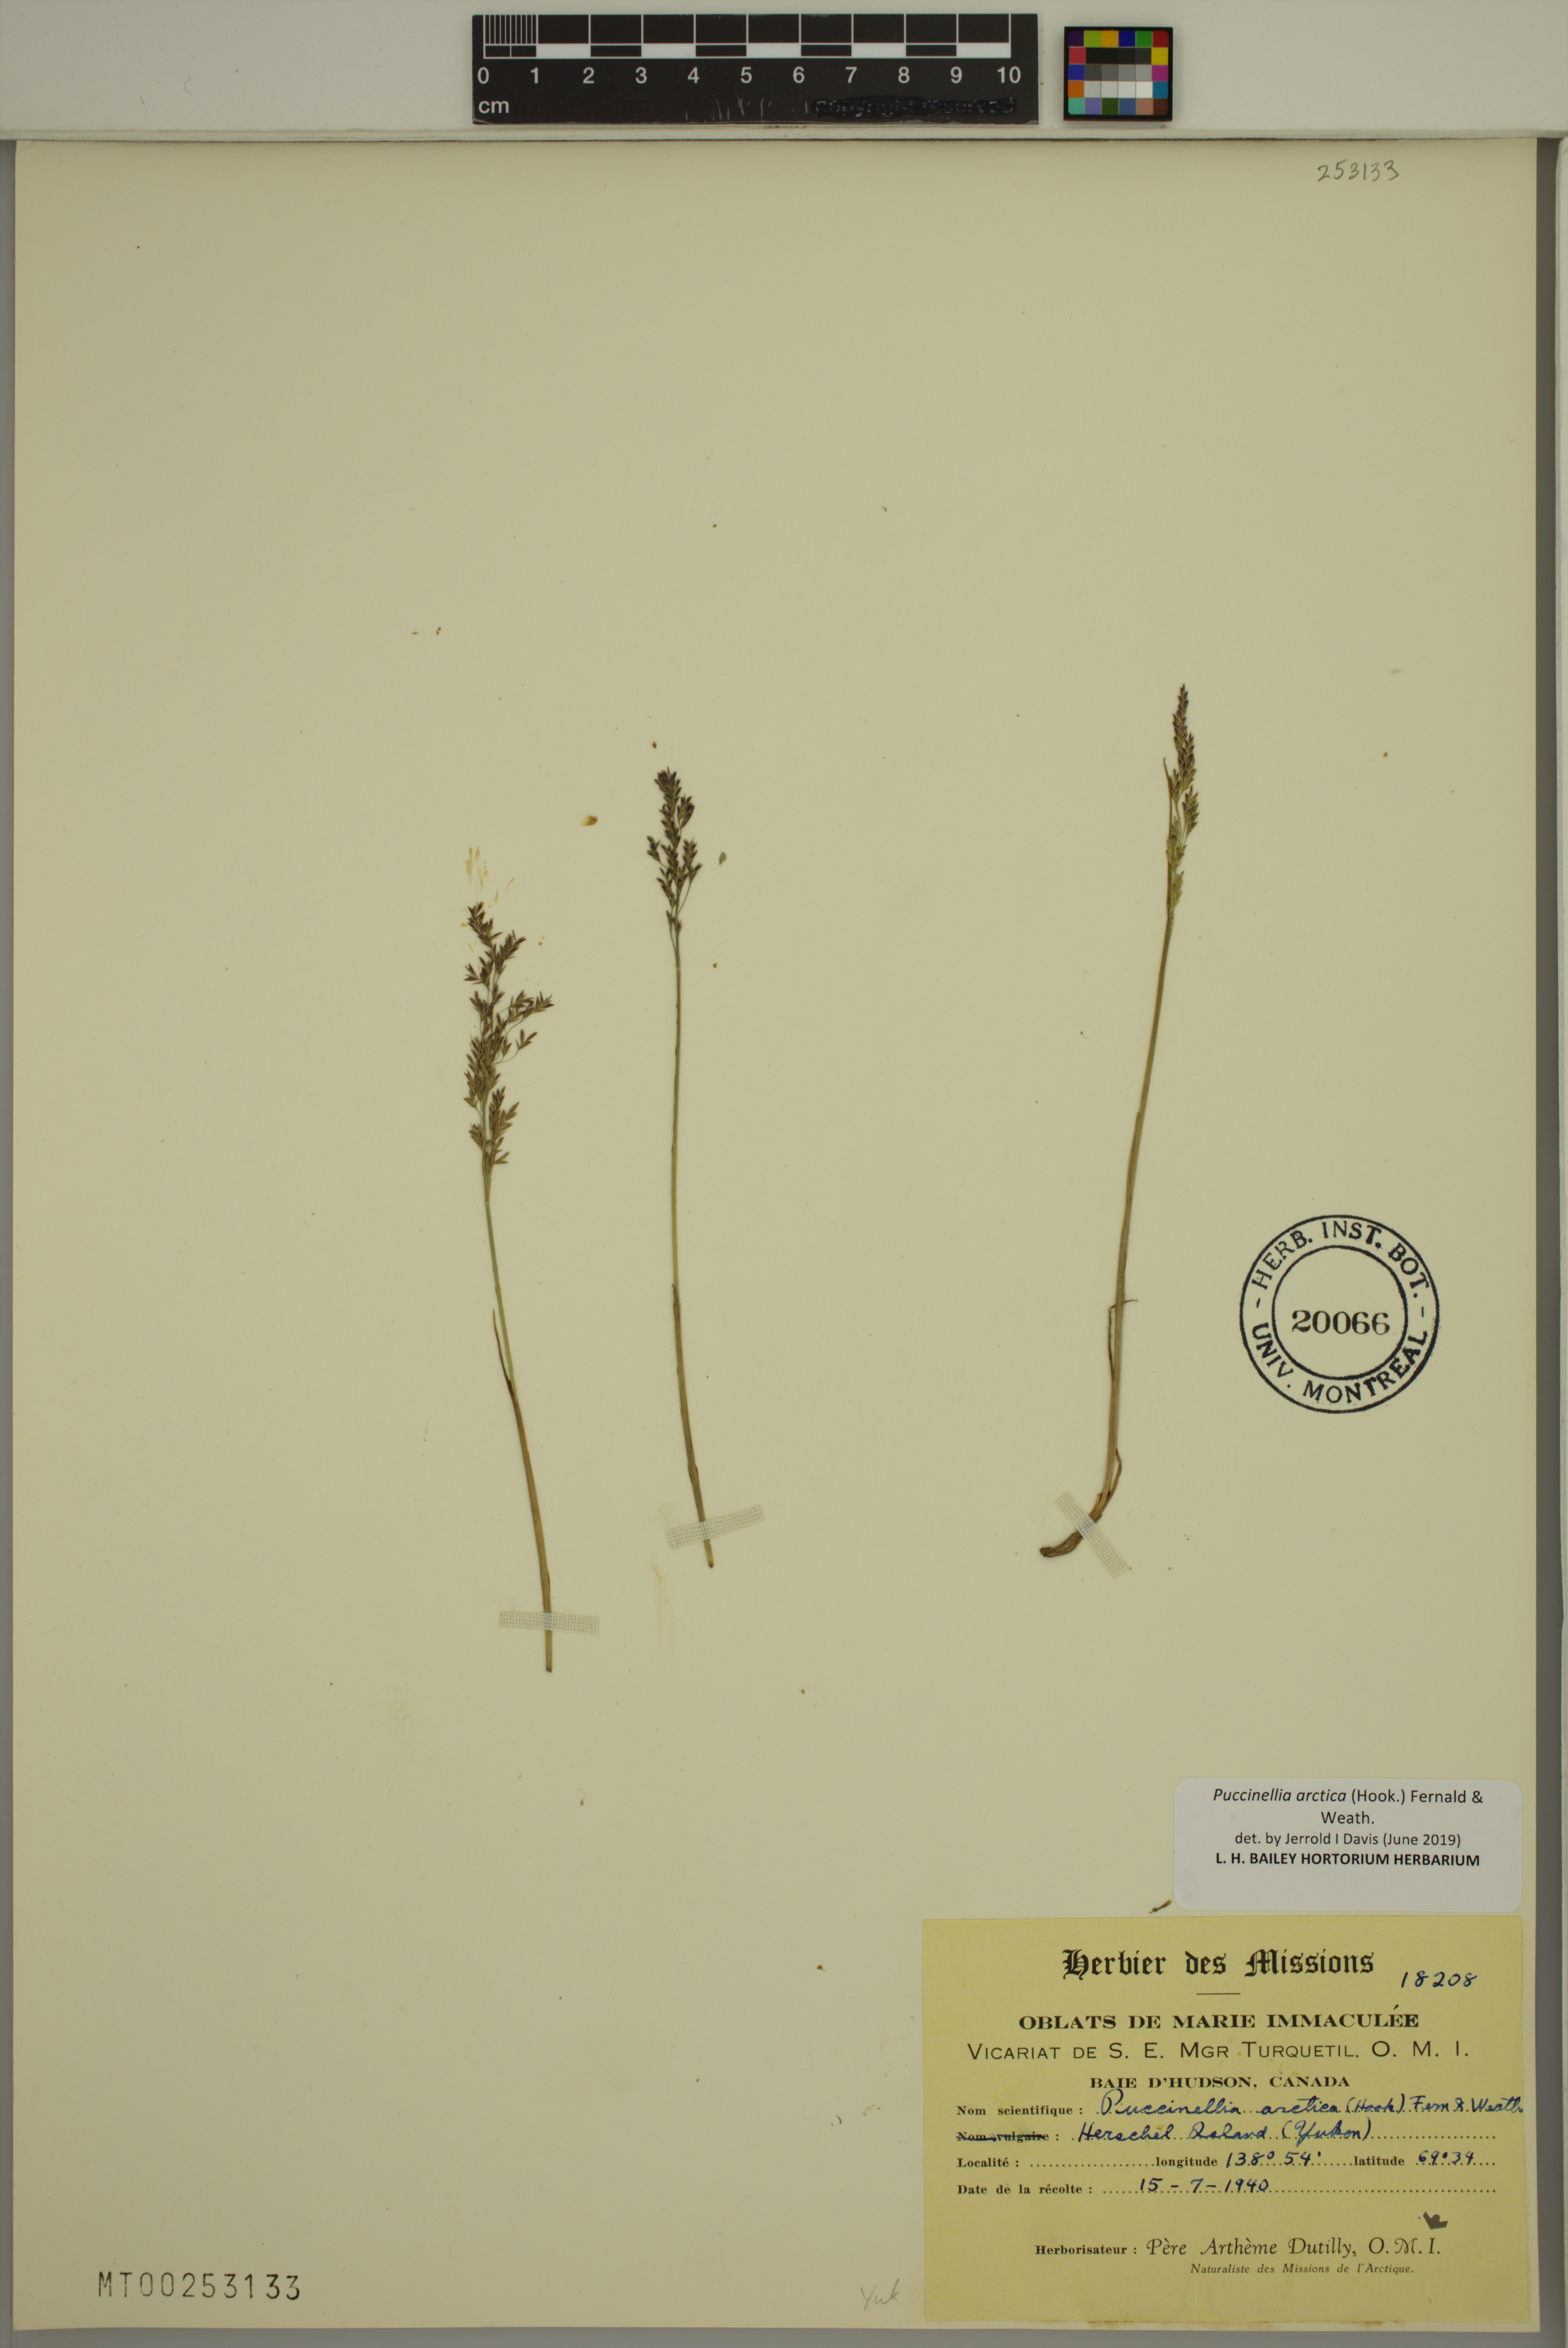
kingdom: Plantae
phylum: Tracheophyta
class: Liliopsida
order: Poales
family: Poaceae
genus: Puccinellia
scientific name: Puccinellia arctica
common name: Arctic alkali grass
